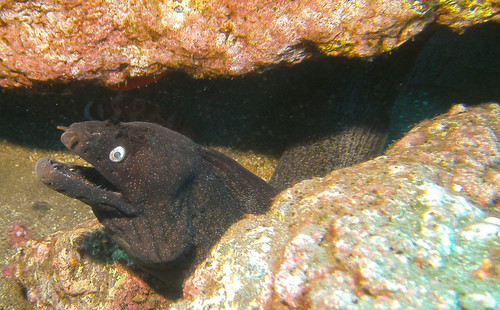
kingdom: Animalia
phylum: Chordata
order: Anguilliformes
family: Muraenidae
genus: Muraena
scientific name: Muraena augusti
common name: Mediterranean moray
